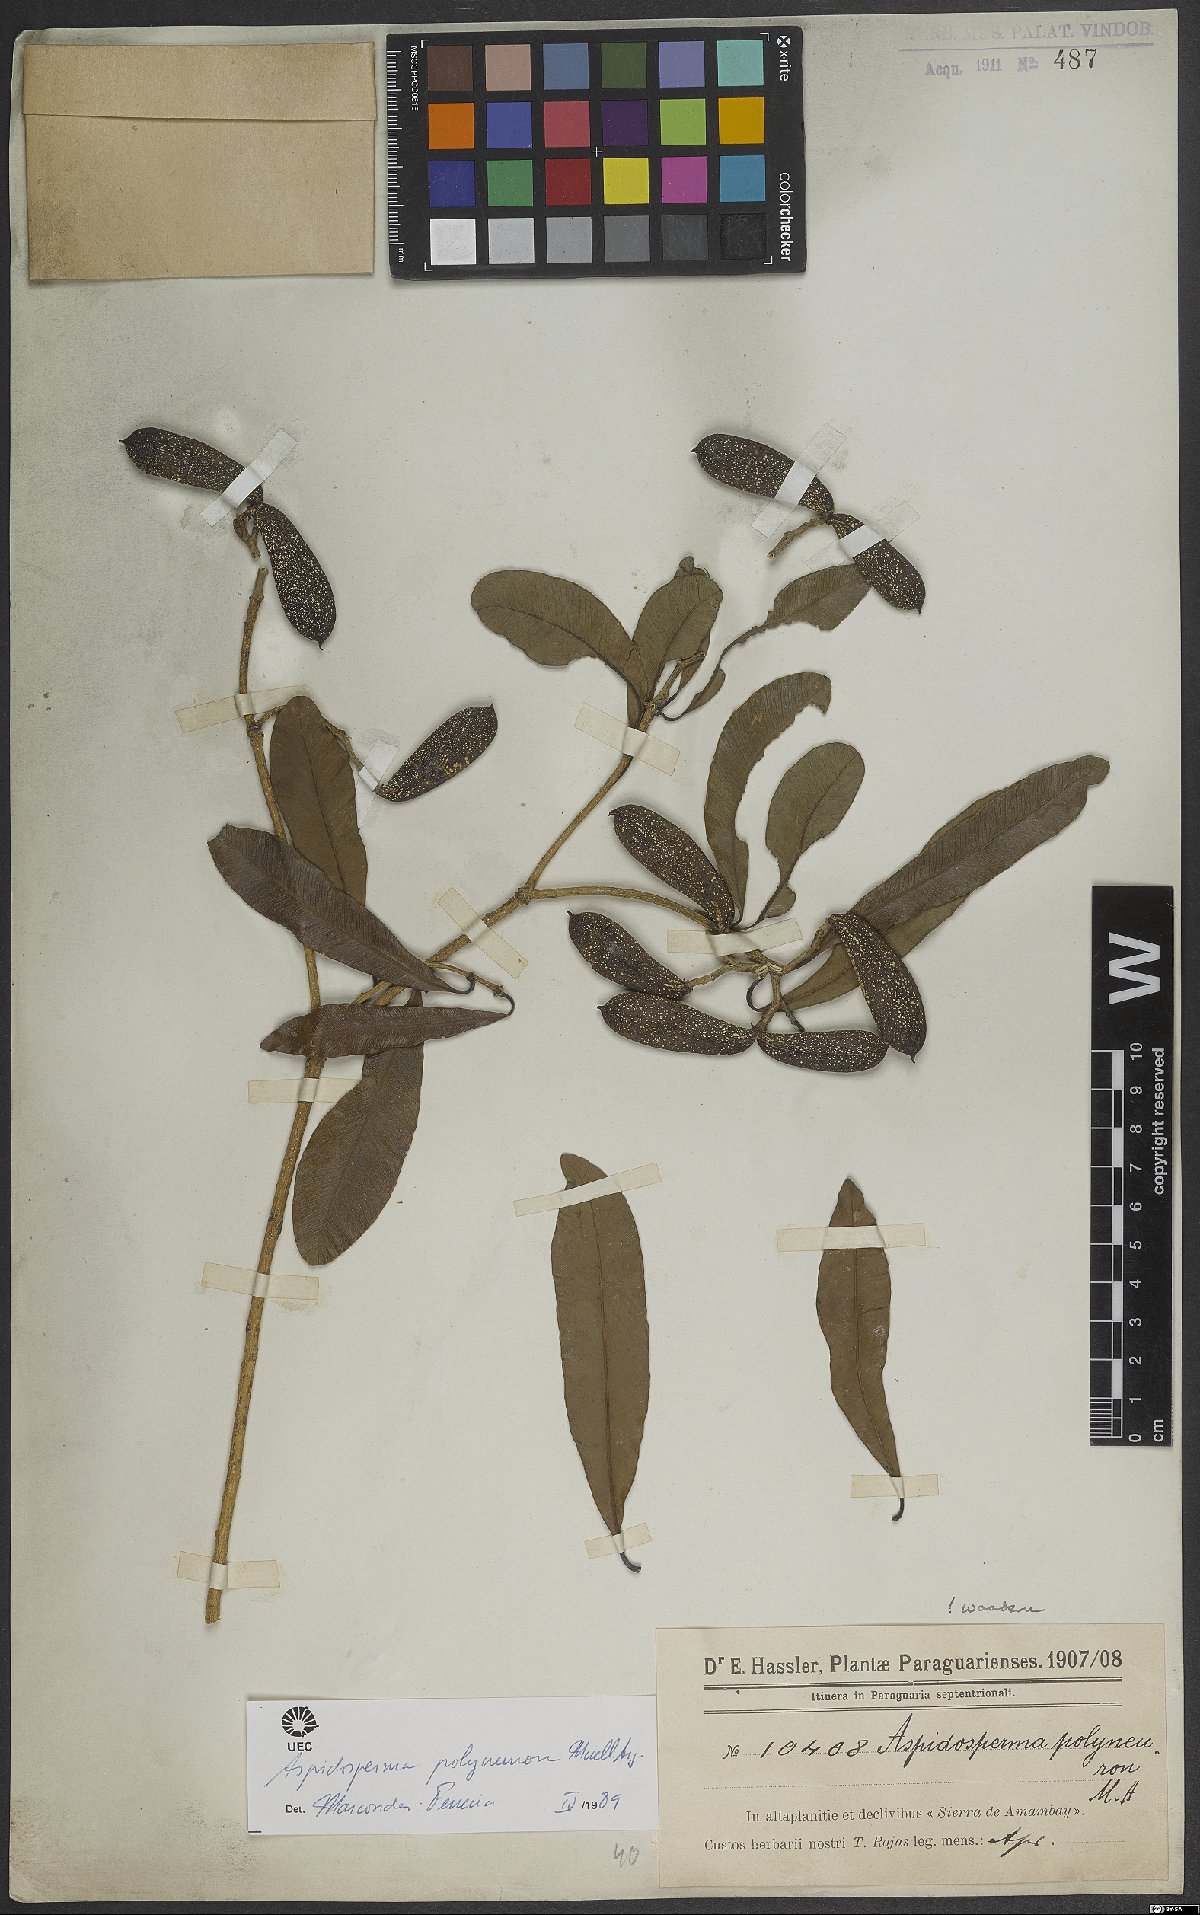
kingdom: Plantae
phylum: Tracheophyta
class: Magnoliopsida
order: Gentianales
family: Apocynaceae
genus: Aspidosperma
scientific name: Aspidosperma polyneuron
